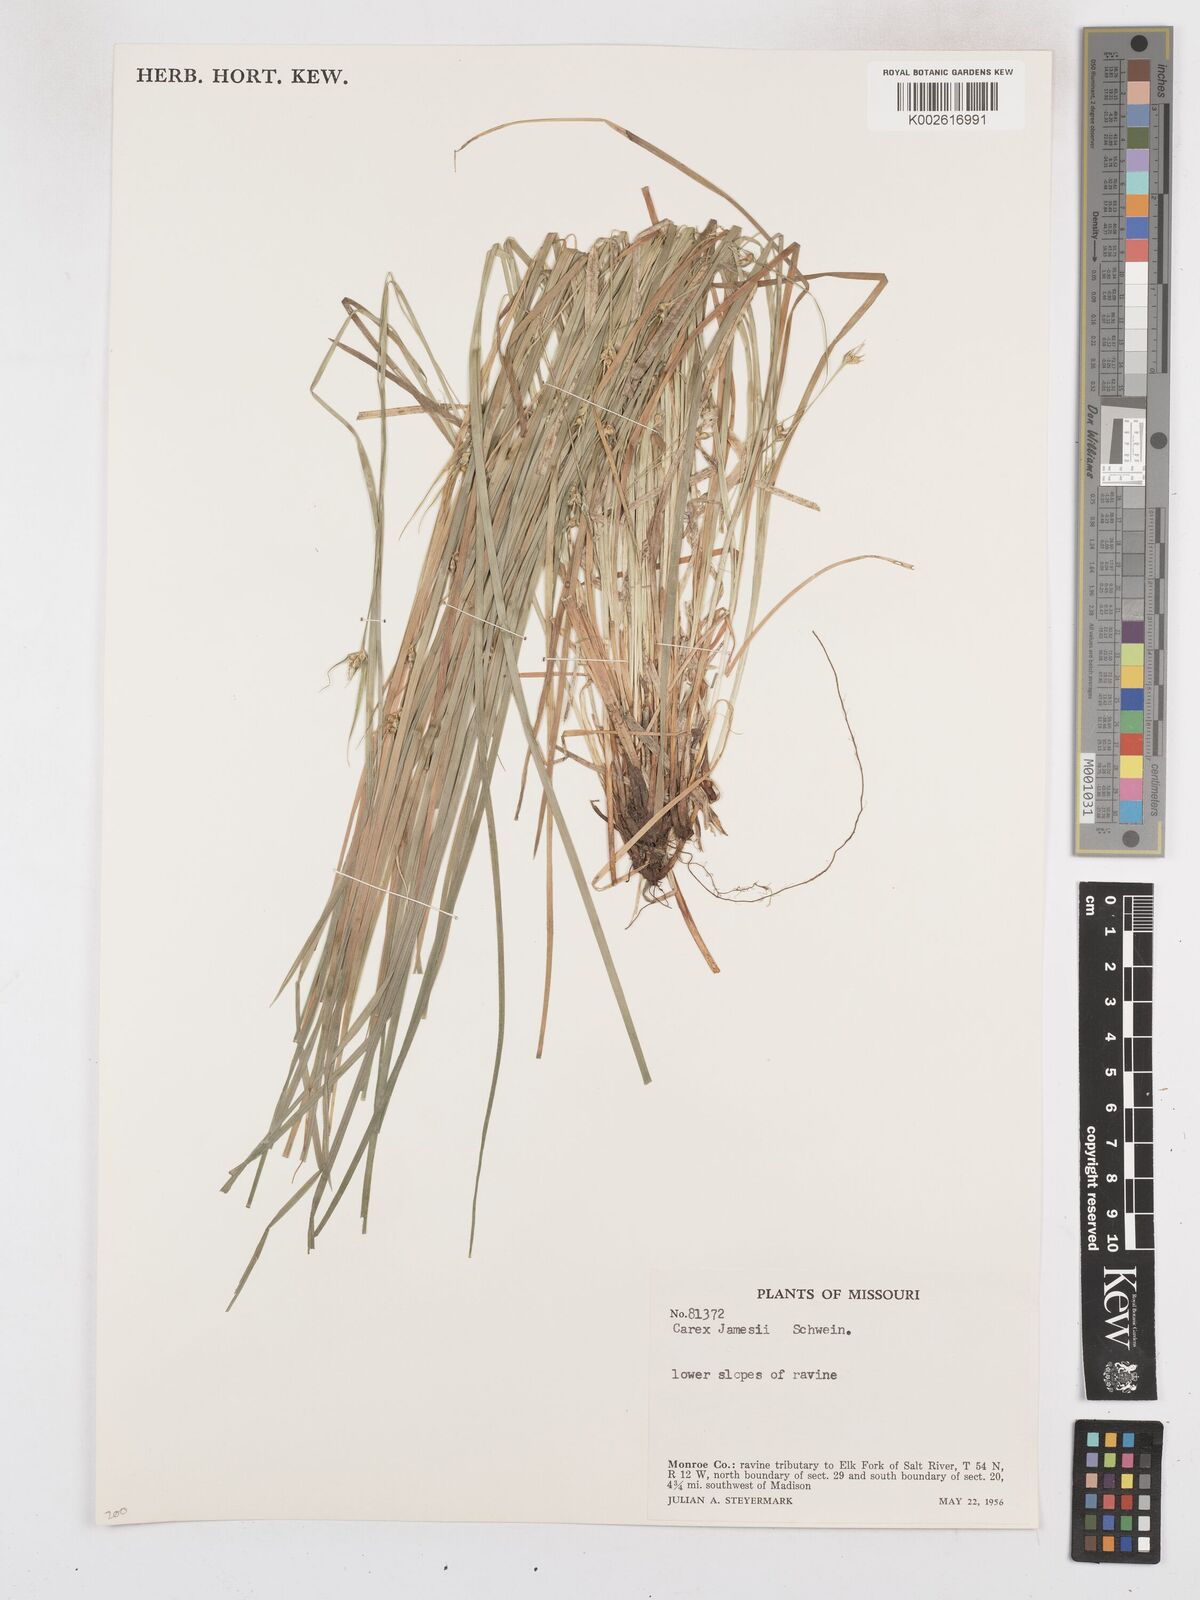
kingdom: Plantae
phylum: Tracheophyta
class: Liliopsida
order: Poales
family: Cyperaceae
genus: Carex
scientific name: Carex jamesii
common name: Grass sedge
